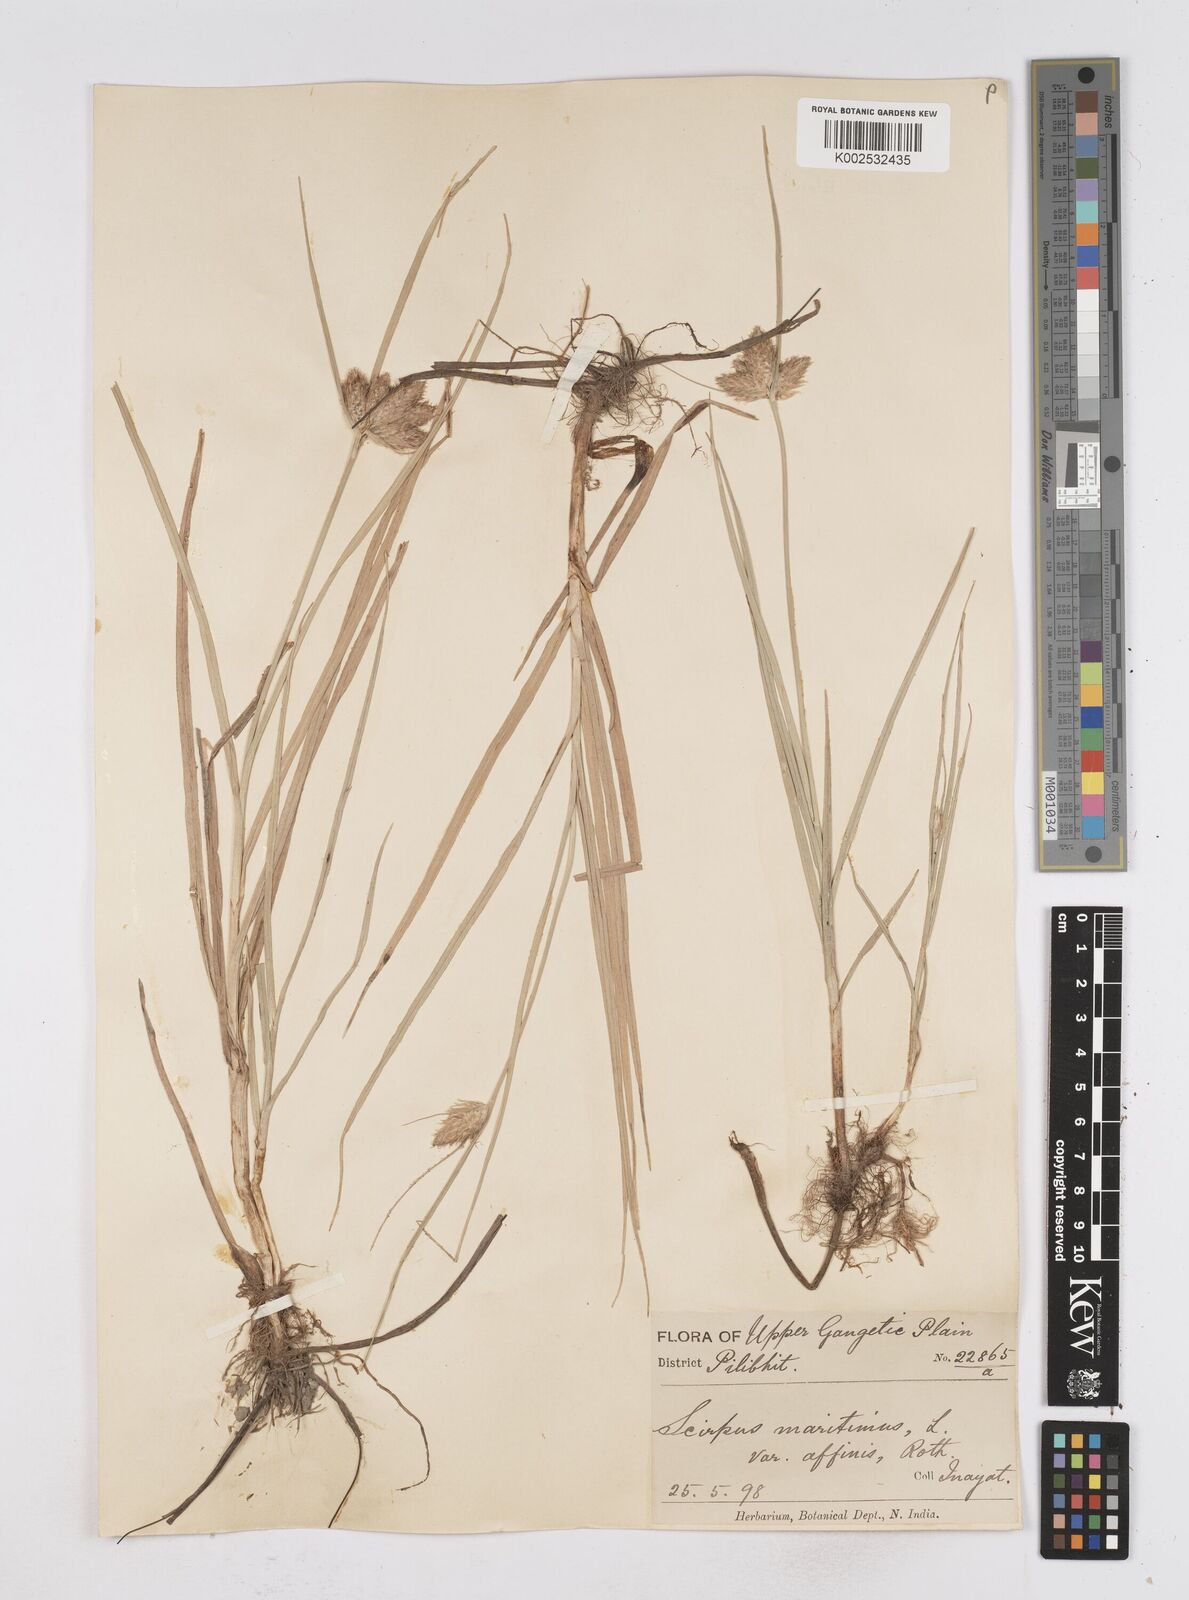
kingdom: Plantae
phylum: Tracheophyta
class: Liliopsida
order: Poales
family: Cyperaceae
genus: Bolboschoenus
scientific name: Bolboschoenus maritimus
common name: Sea club-rush
